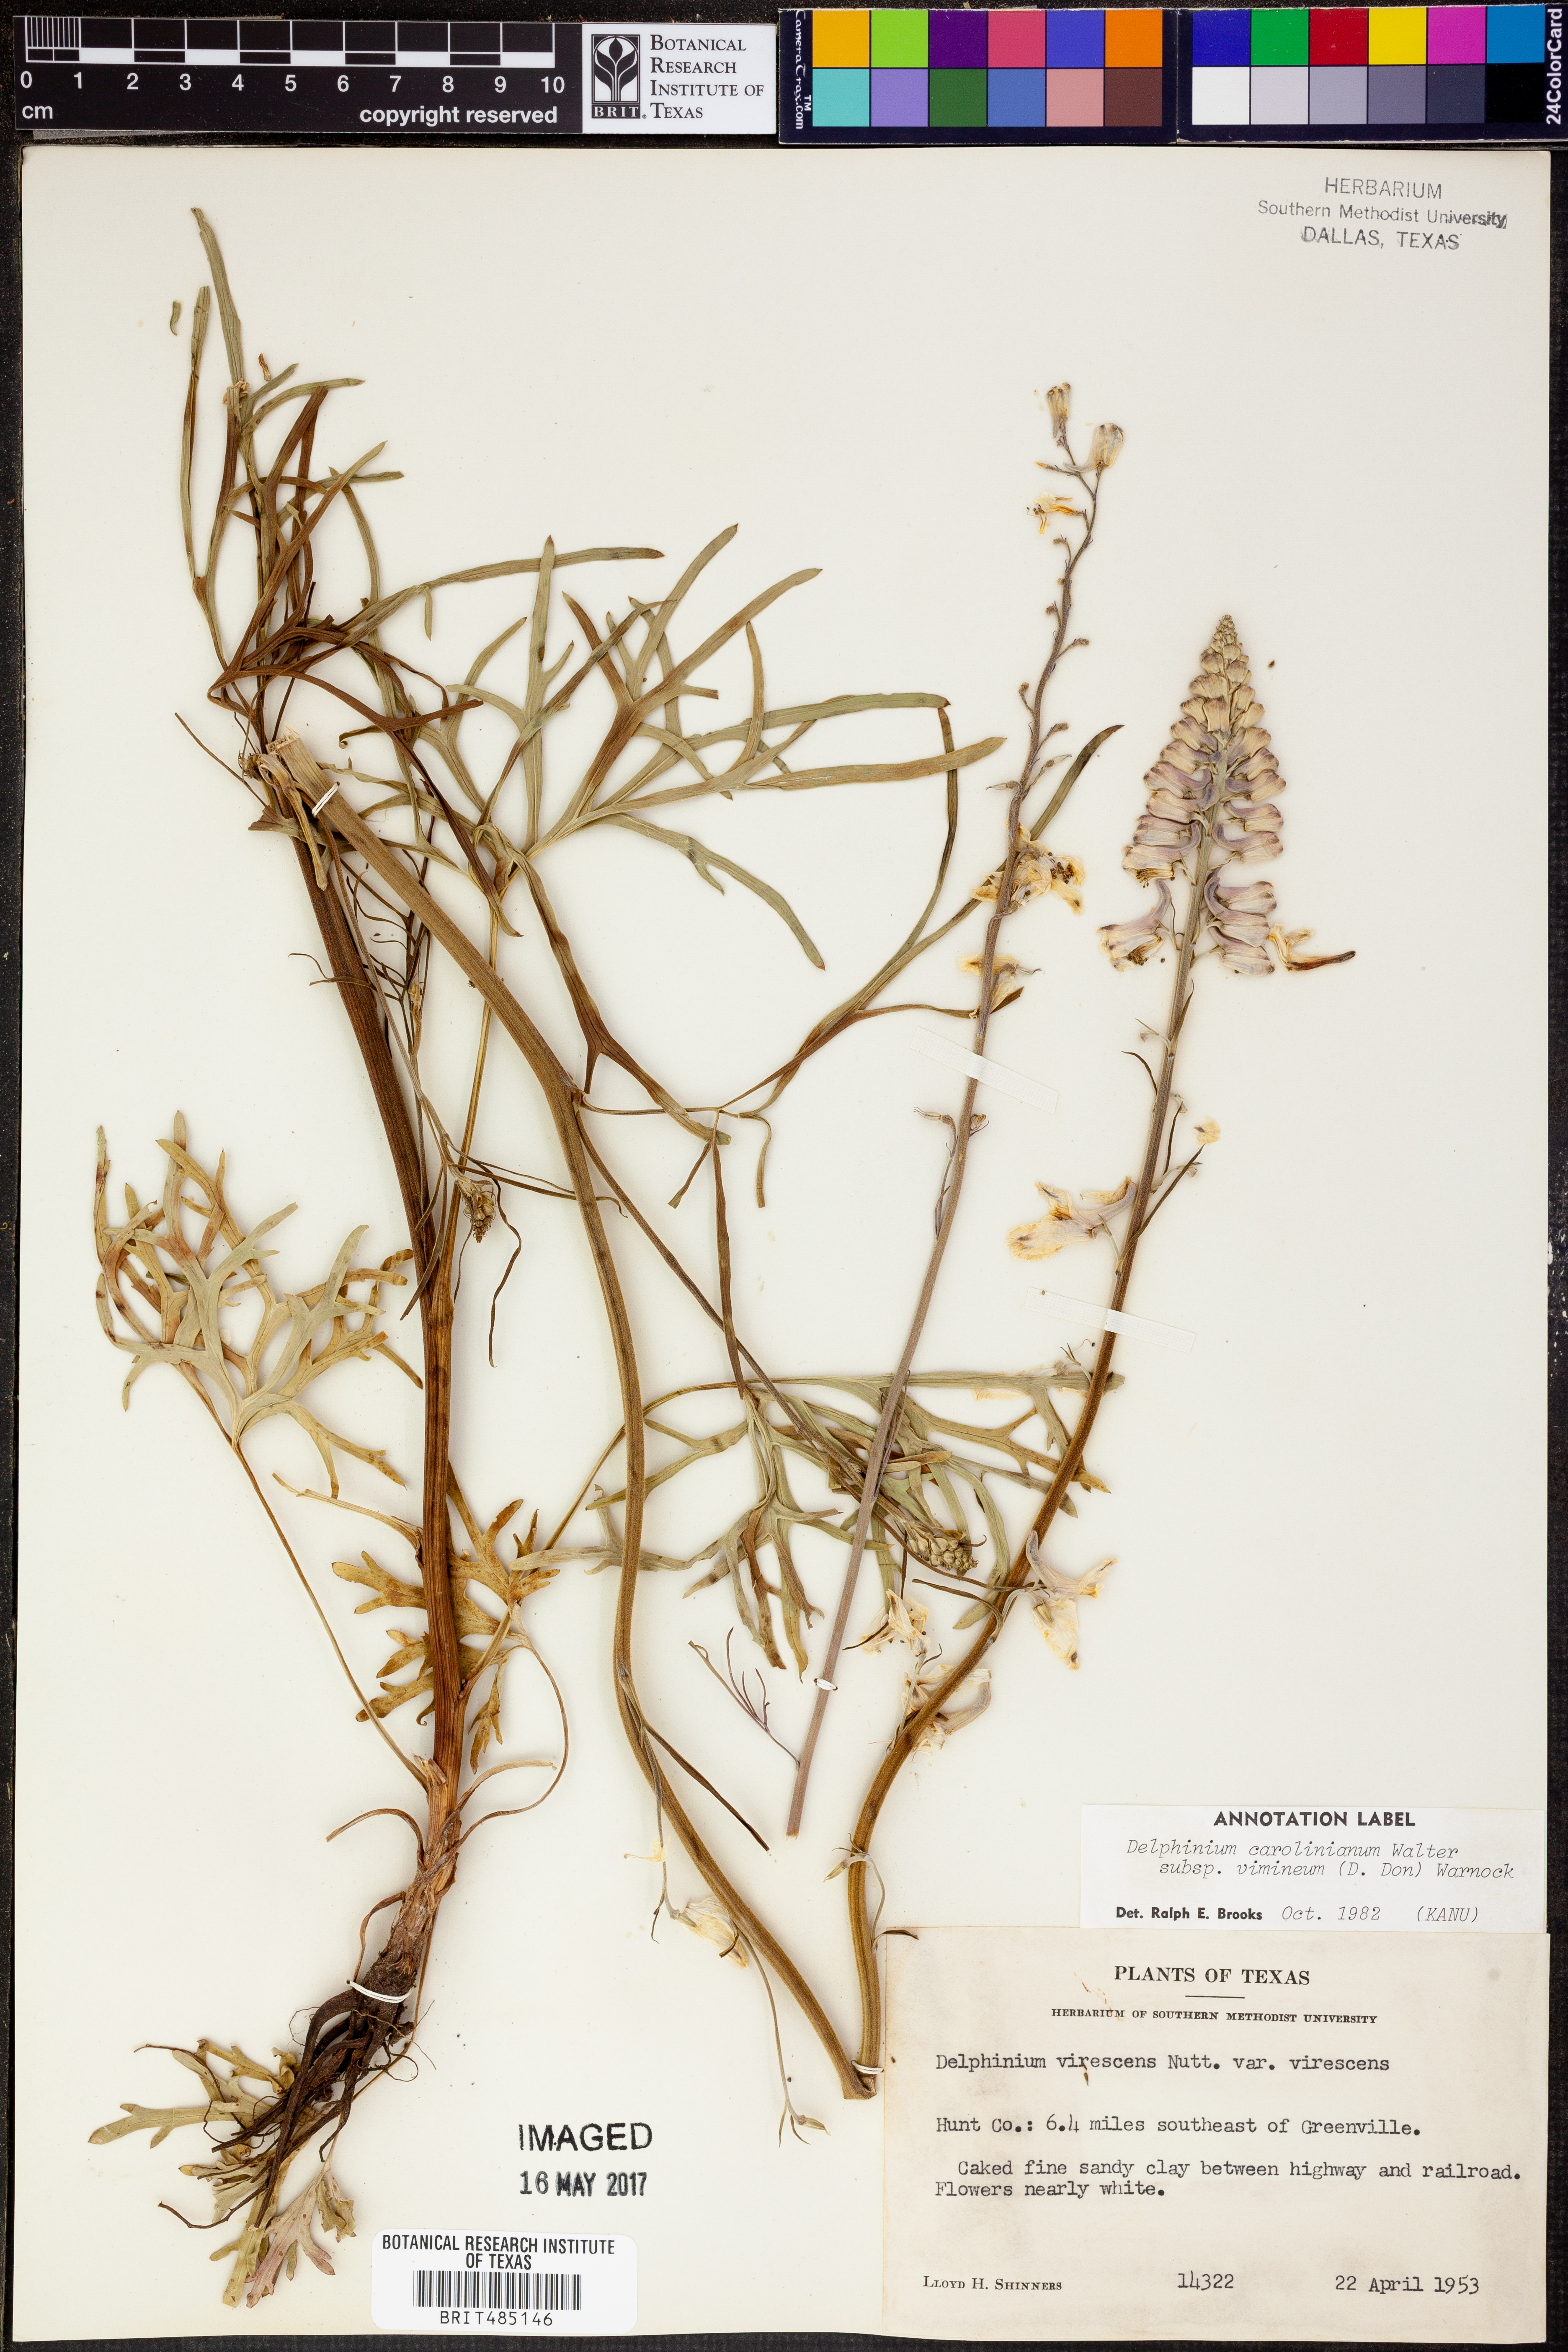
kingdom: Plantae
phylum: Tracheophyta
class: Magnoliopsida
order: Ranunculales
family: Ranunculaceae
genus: Delphinium
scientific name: Delphinium carolinianum
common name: Carolina larkspur
